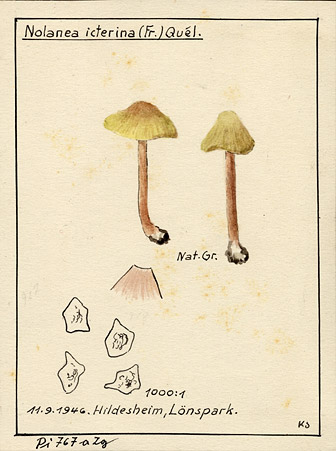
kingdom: Fungi
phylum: Basidiomycota
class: Agaricomycetes
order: Agaricales
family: Entolomataceae
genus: Entoloma
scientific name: Entoloma pleopodium
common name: Aromatic pinkgill
